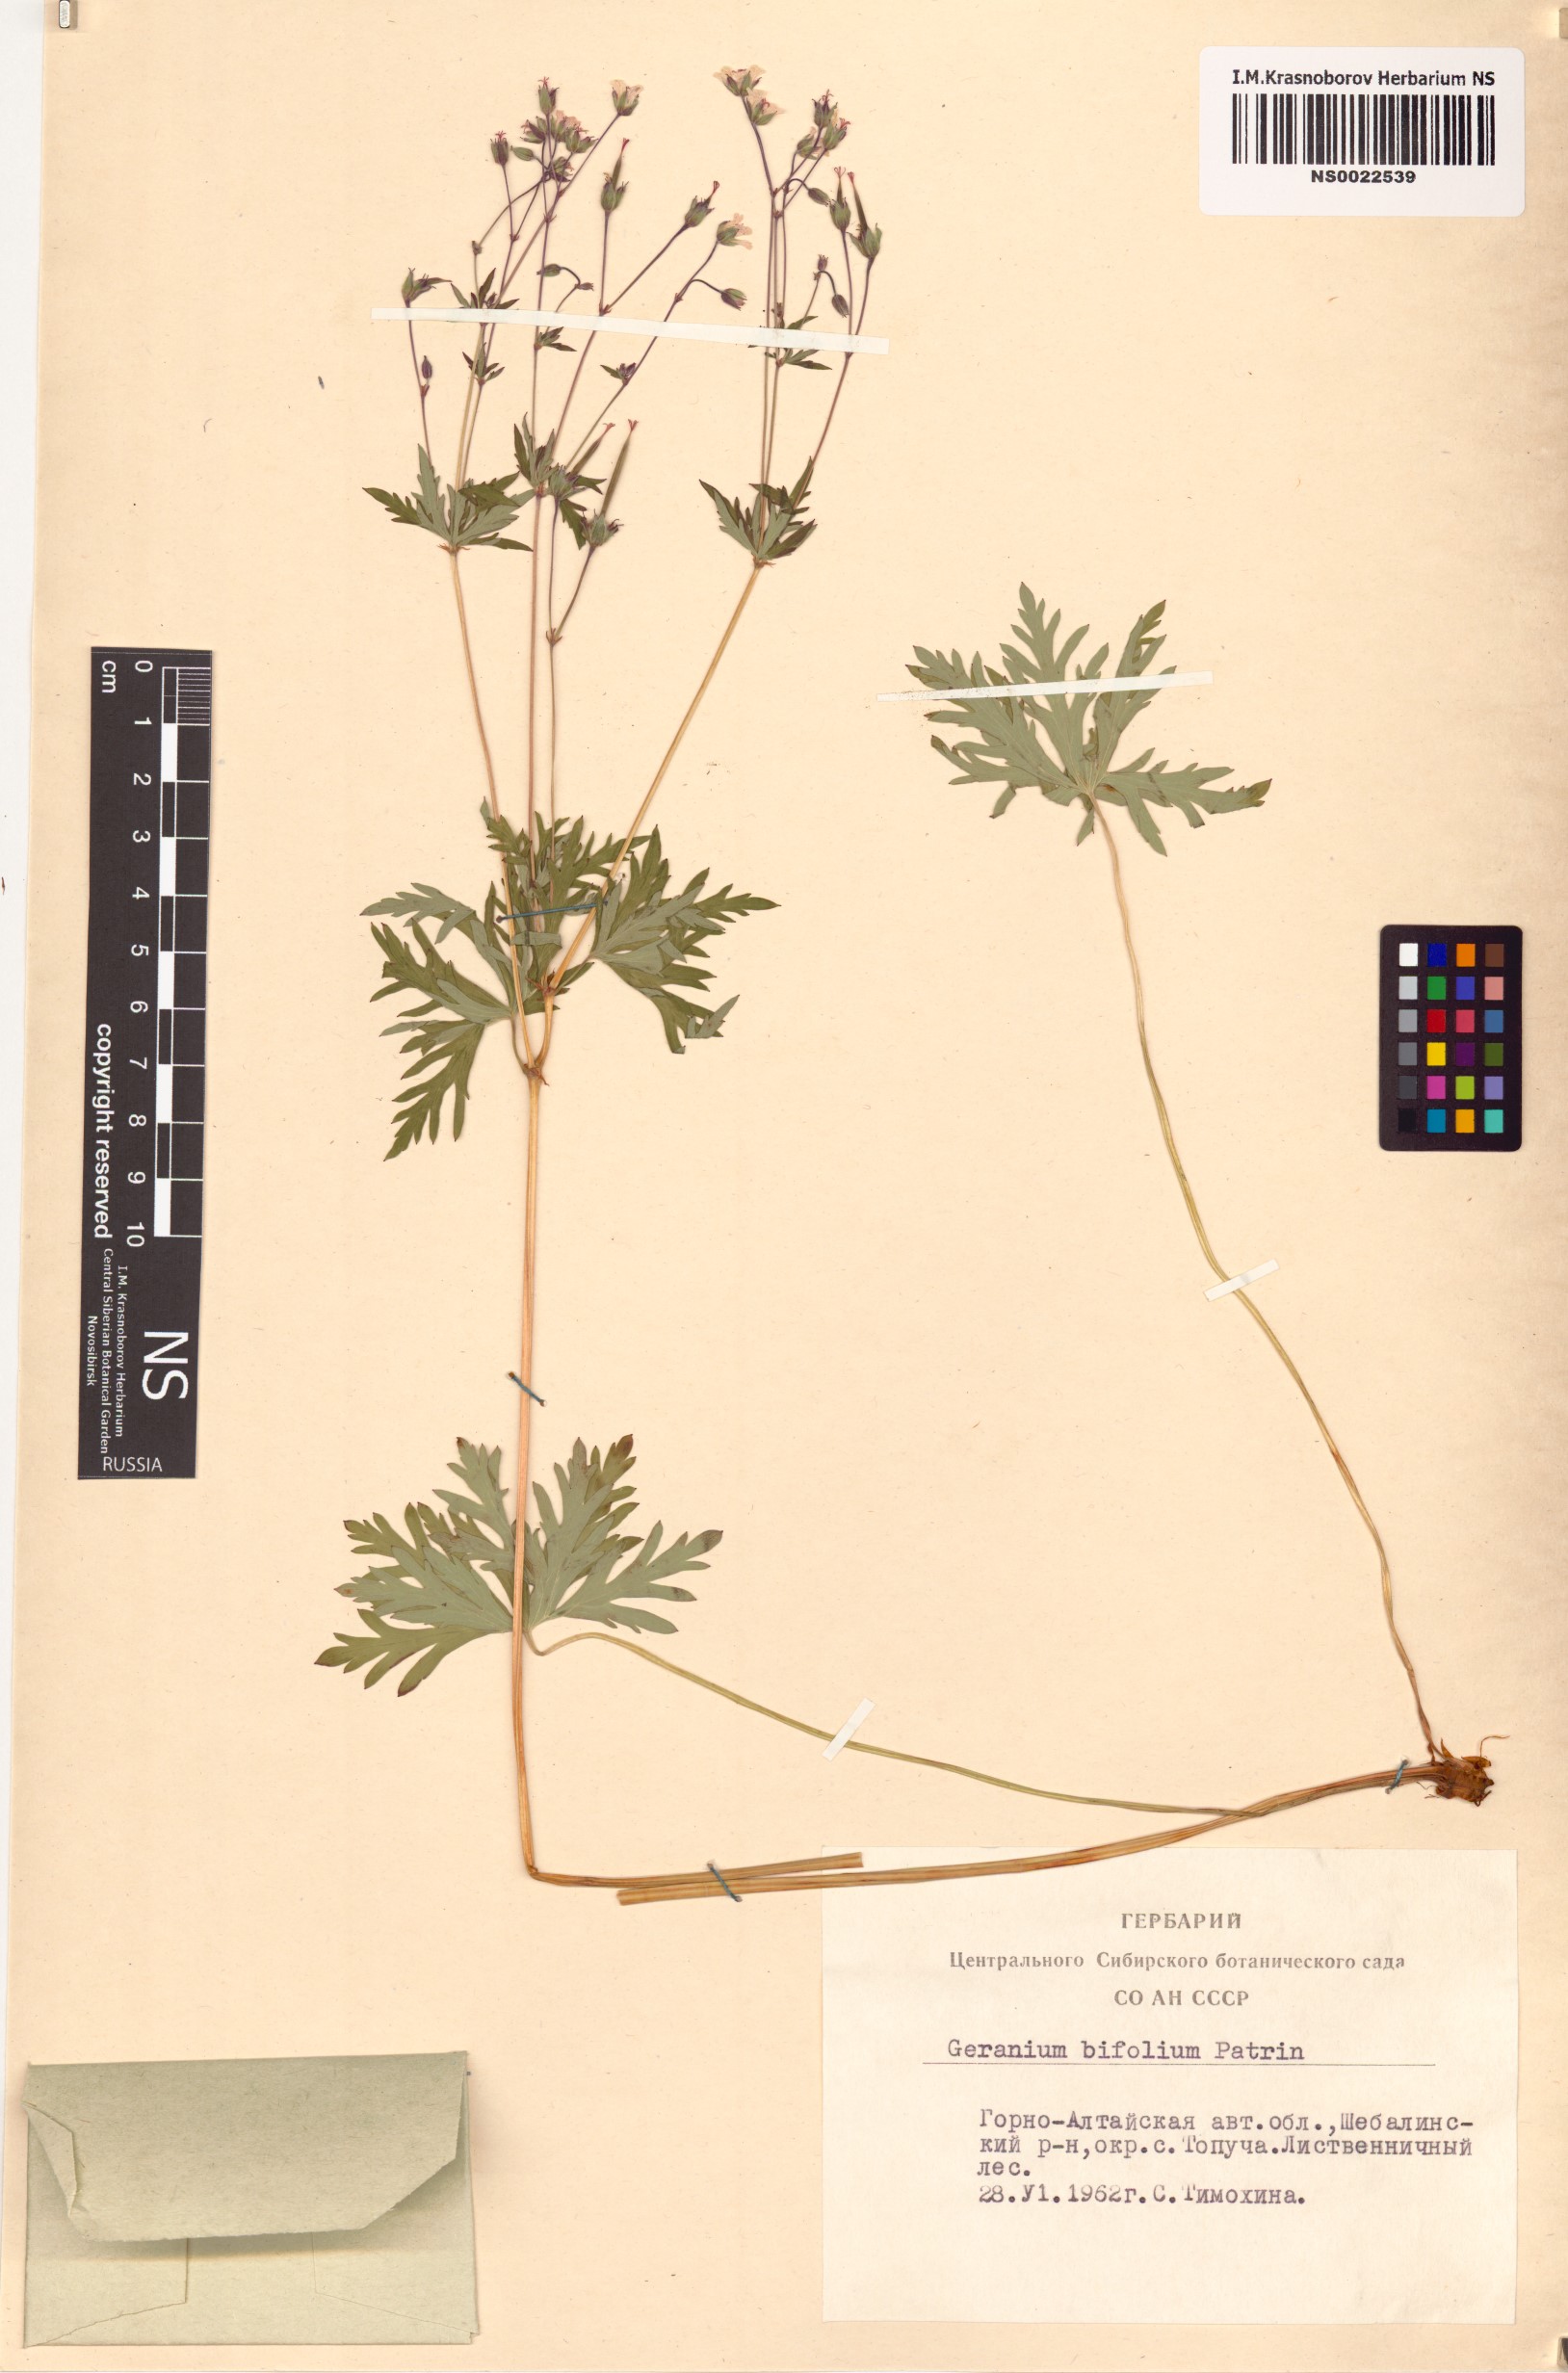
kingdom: Plantae
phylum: Tracheophyta
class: Magnoliopsida
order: Geraniales
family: Geraniaceae
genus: Geranium
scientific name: Geranium pseudosibiricum
